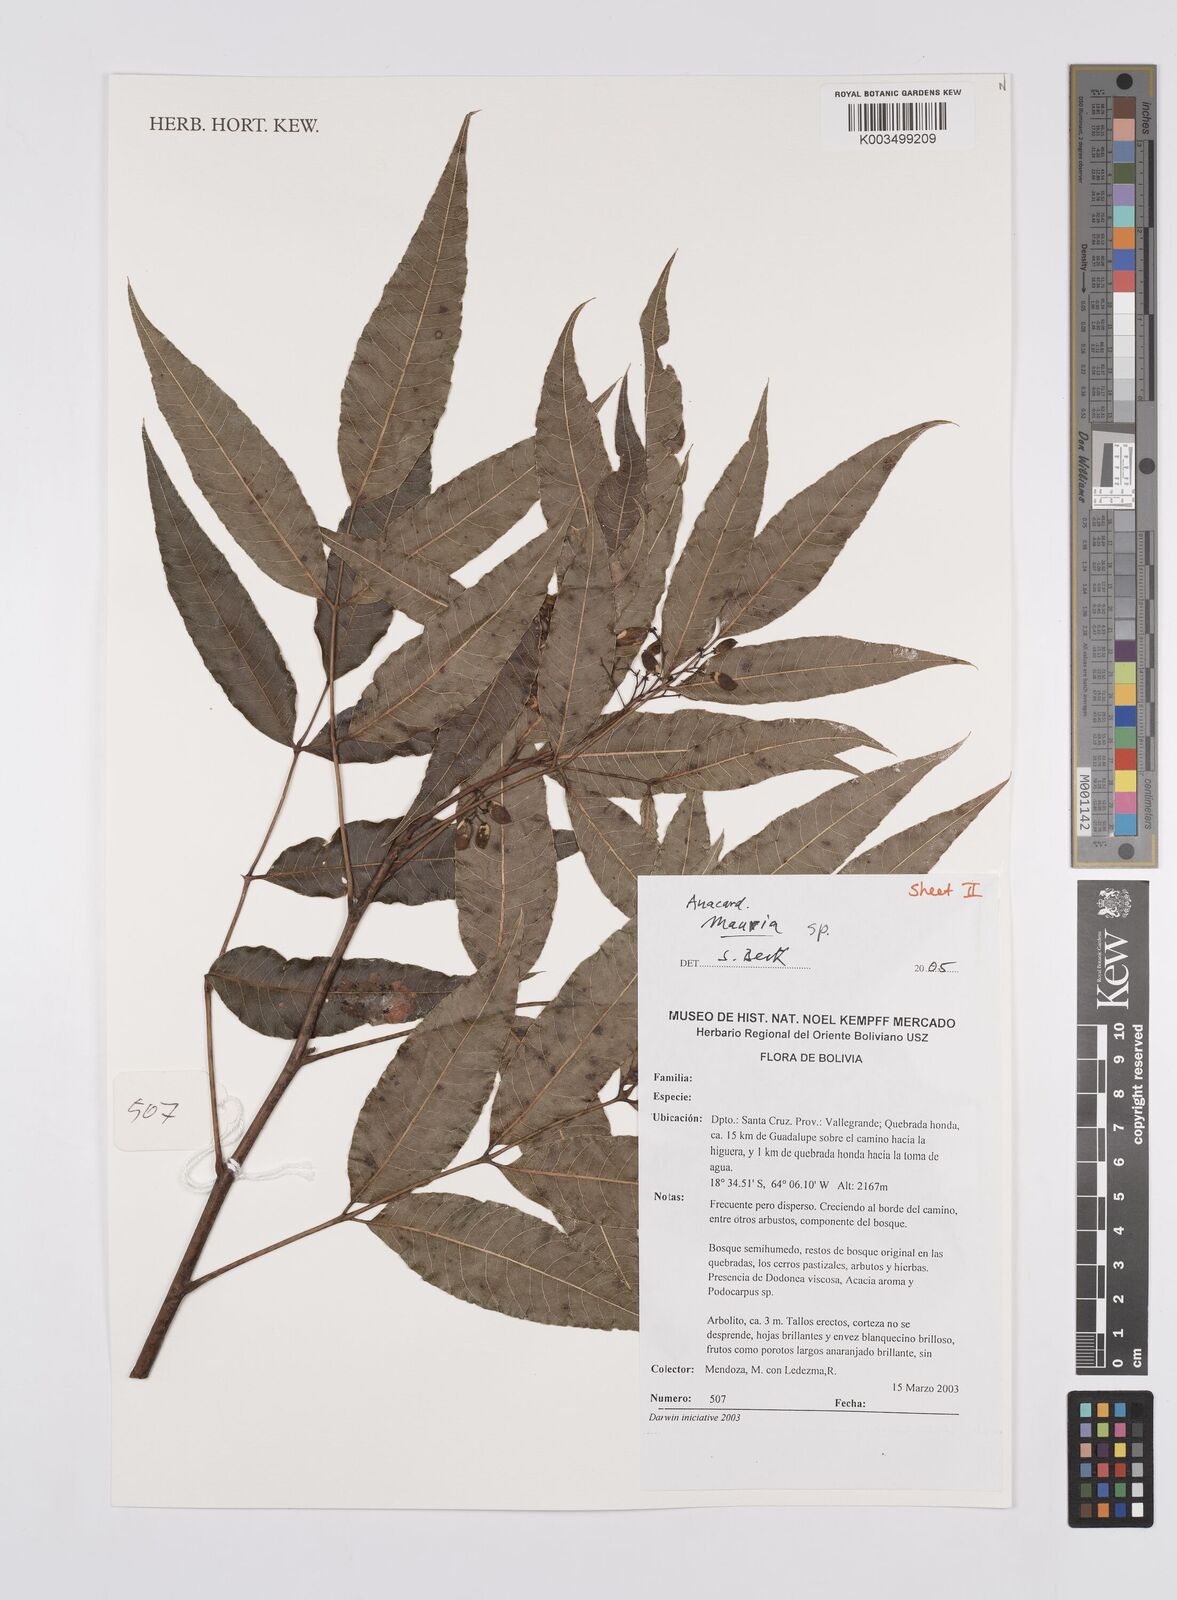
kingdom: Plantae
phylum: Tracheophyta
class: Magnoliopsida
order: Sapindales
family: Anacardiaceae
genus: Mauria
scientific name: Mauria
